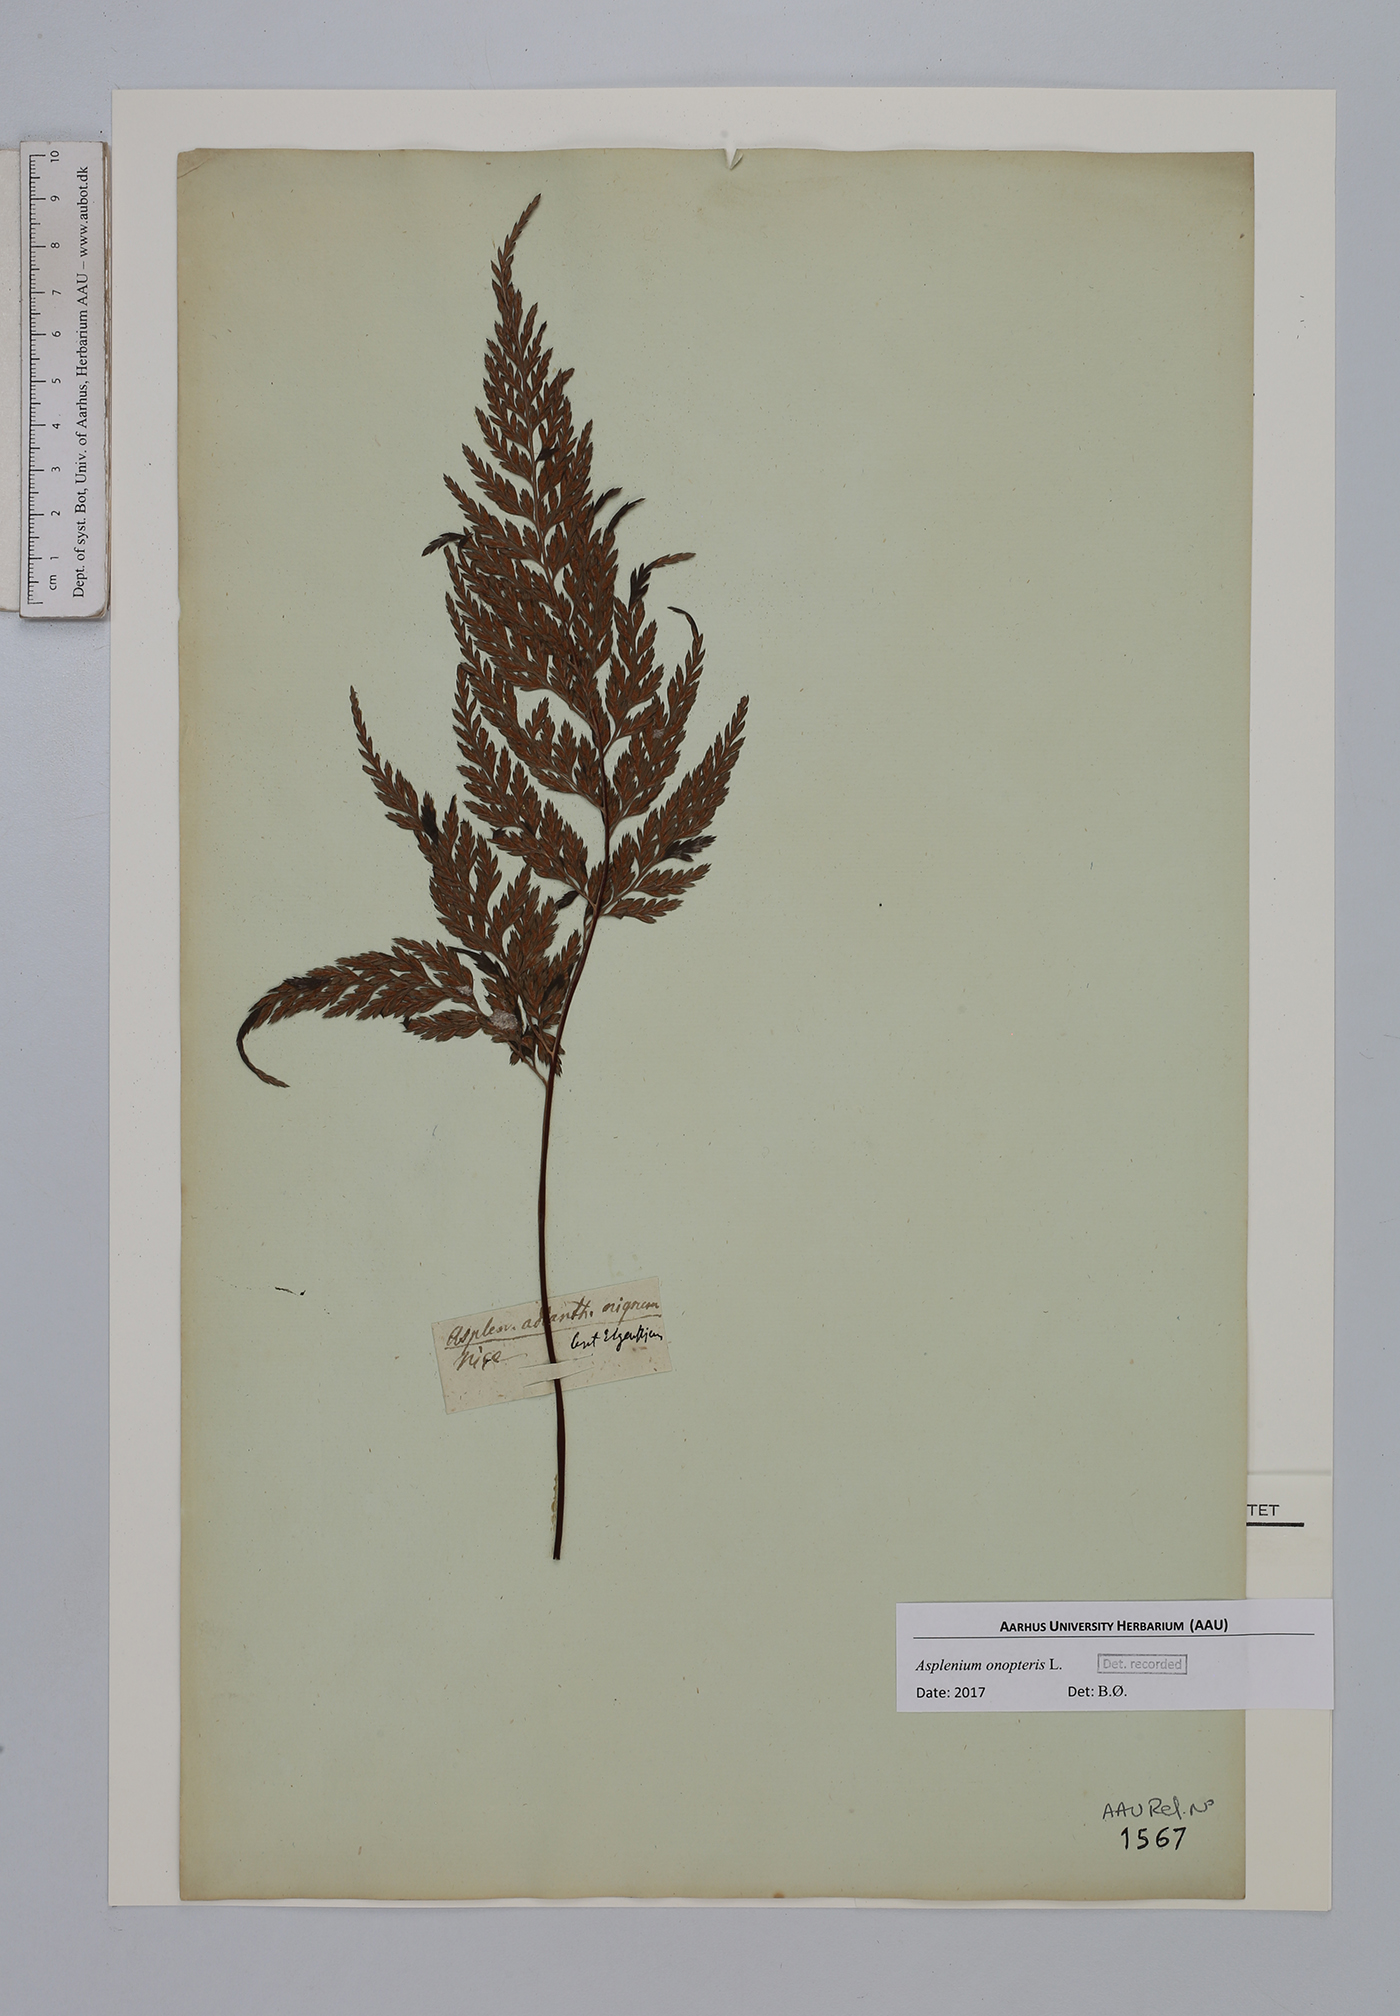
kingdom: Plantae
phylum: Tracheophyta
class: Polypodiopsida
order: Polypodiales
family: Aspleniaceae
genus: Asplenium
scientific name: Asplenium onopteris
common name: Irish spleenwort
